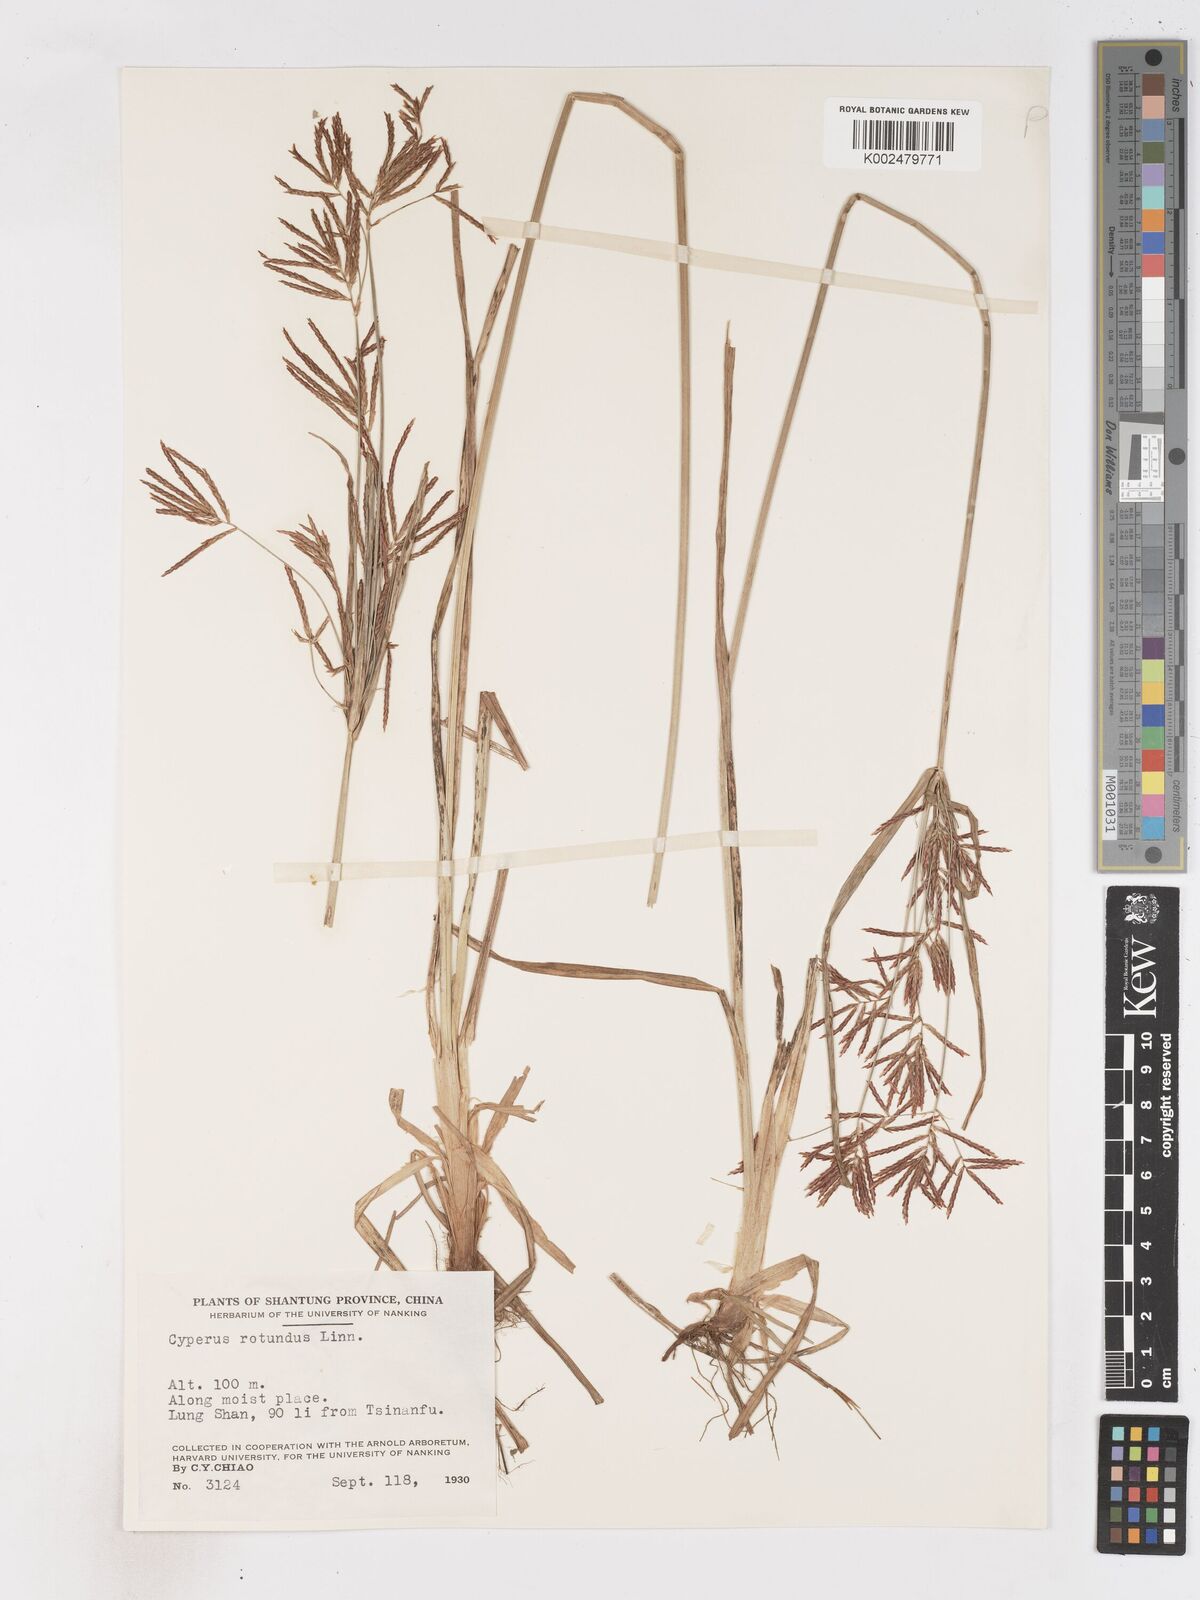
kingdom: Plantae
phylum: Tracheophyta
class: Liliopsida
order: Poales
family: Cyperaceae
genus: Cyperus
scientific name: Cyperus rotundus
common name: Nutgrass
